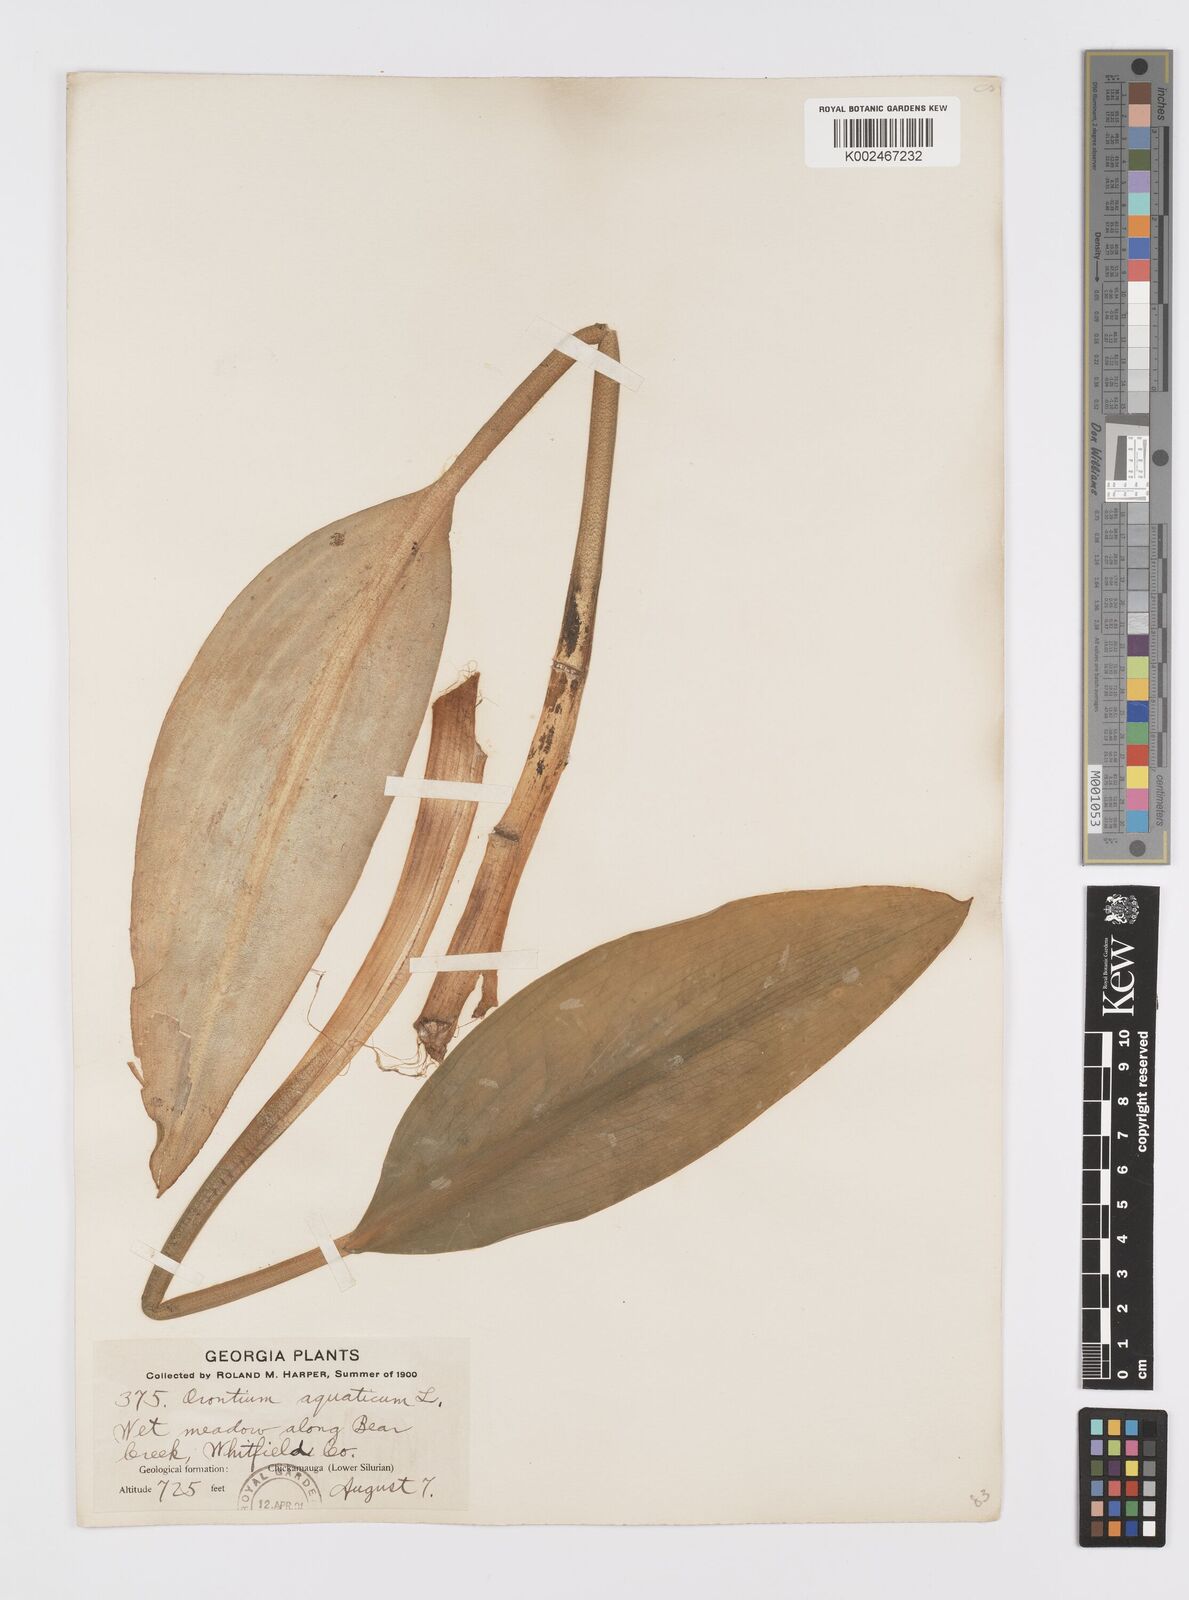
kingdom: Plantae
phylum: Tracheophyta
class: Liliopsida
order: Alismatales
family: Araceae
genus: Orontium
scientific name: Orontium aquaticum
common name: Golden-club
